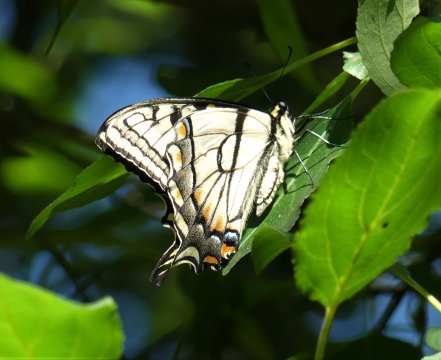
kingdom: Animalia
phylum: Arthropoda
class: Insecta
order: Lepidoptera
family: Papilionidae
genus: Pterourus
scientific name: Pterourus
